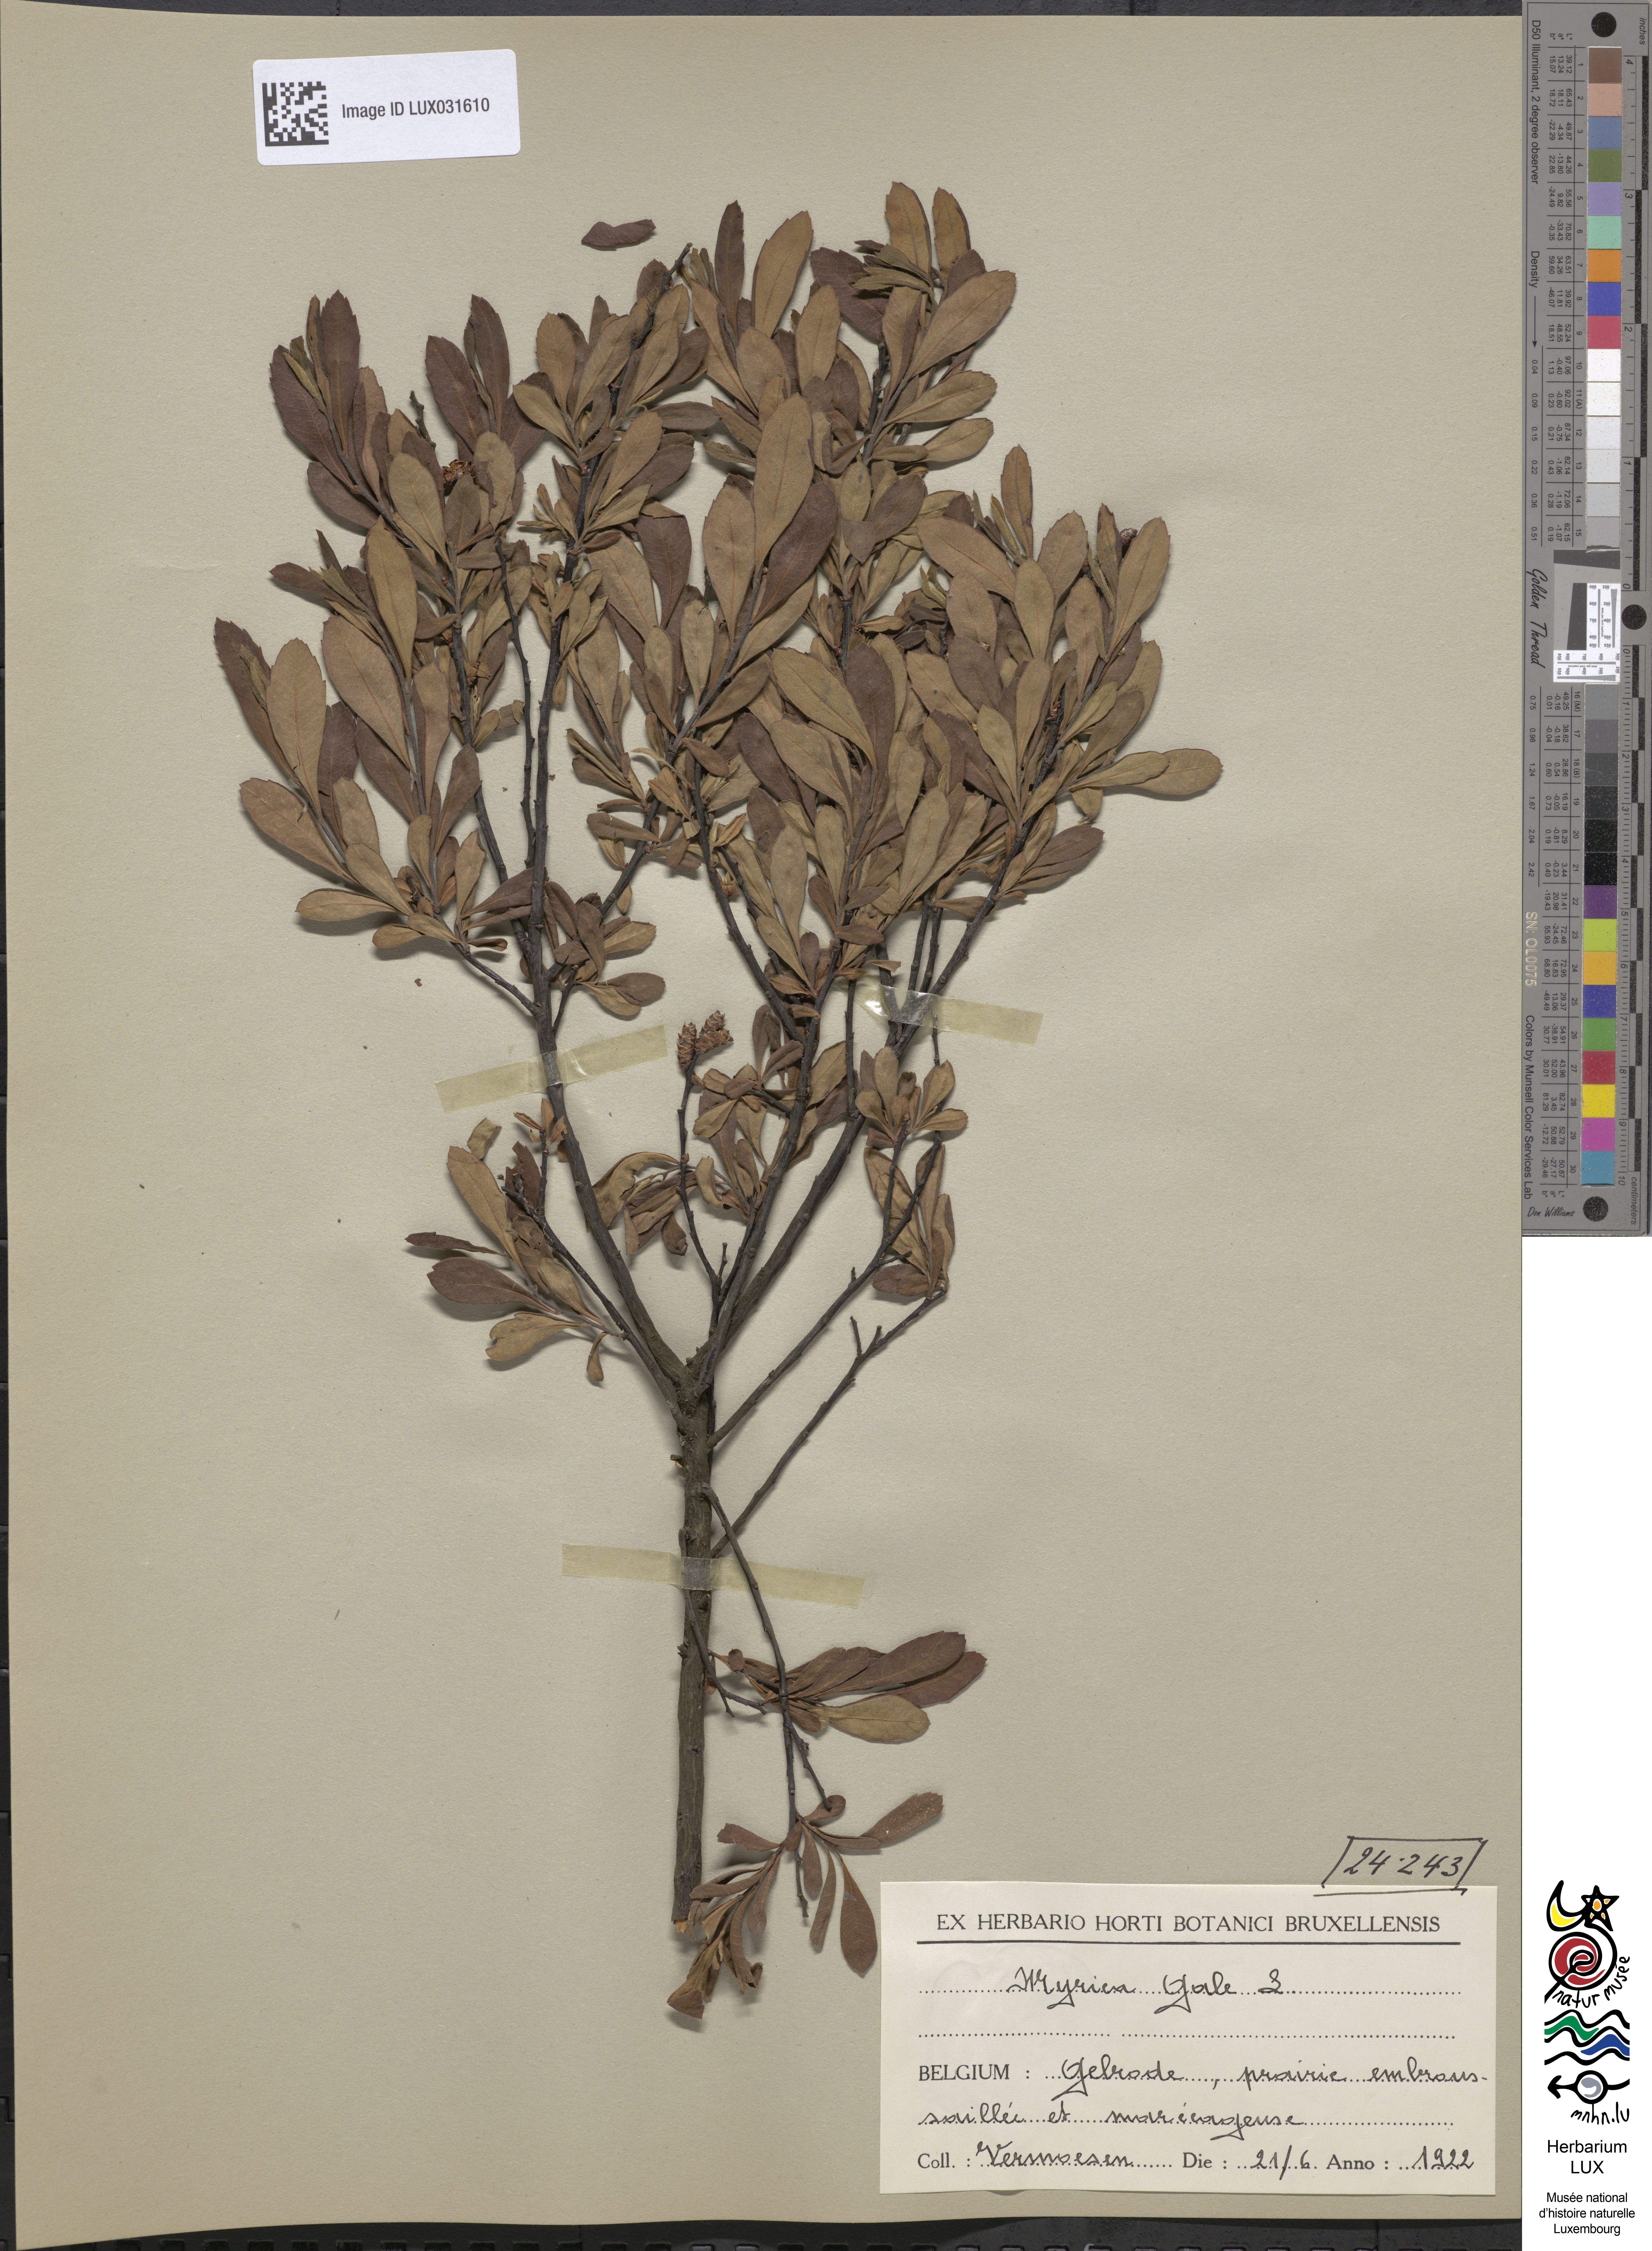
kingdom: Plantae
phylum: Tracheophyta
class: Magnoliopsida
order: Fagales
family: Myricaceae
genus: Myrica
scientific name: Myrica gale
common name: Sweet gale
